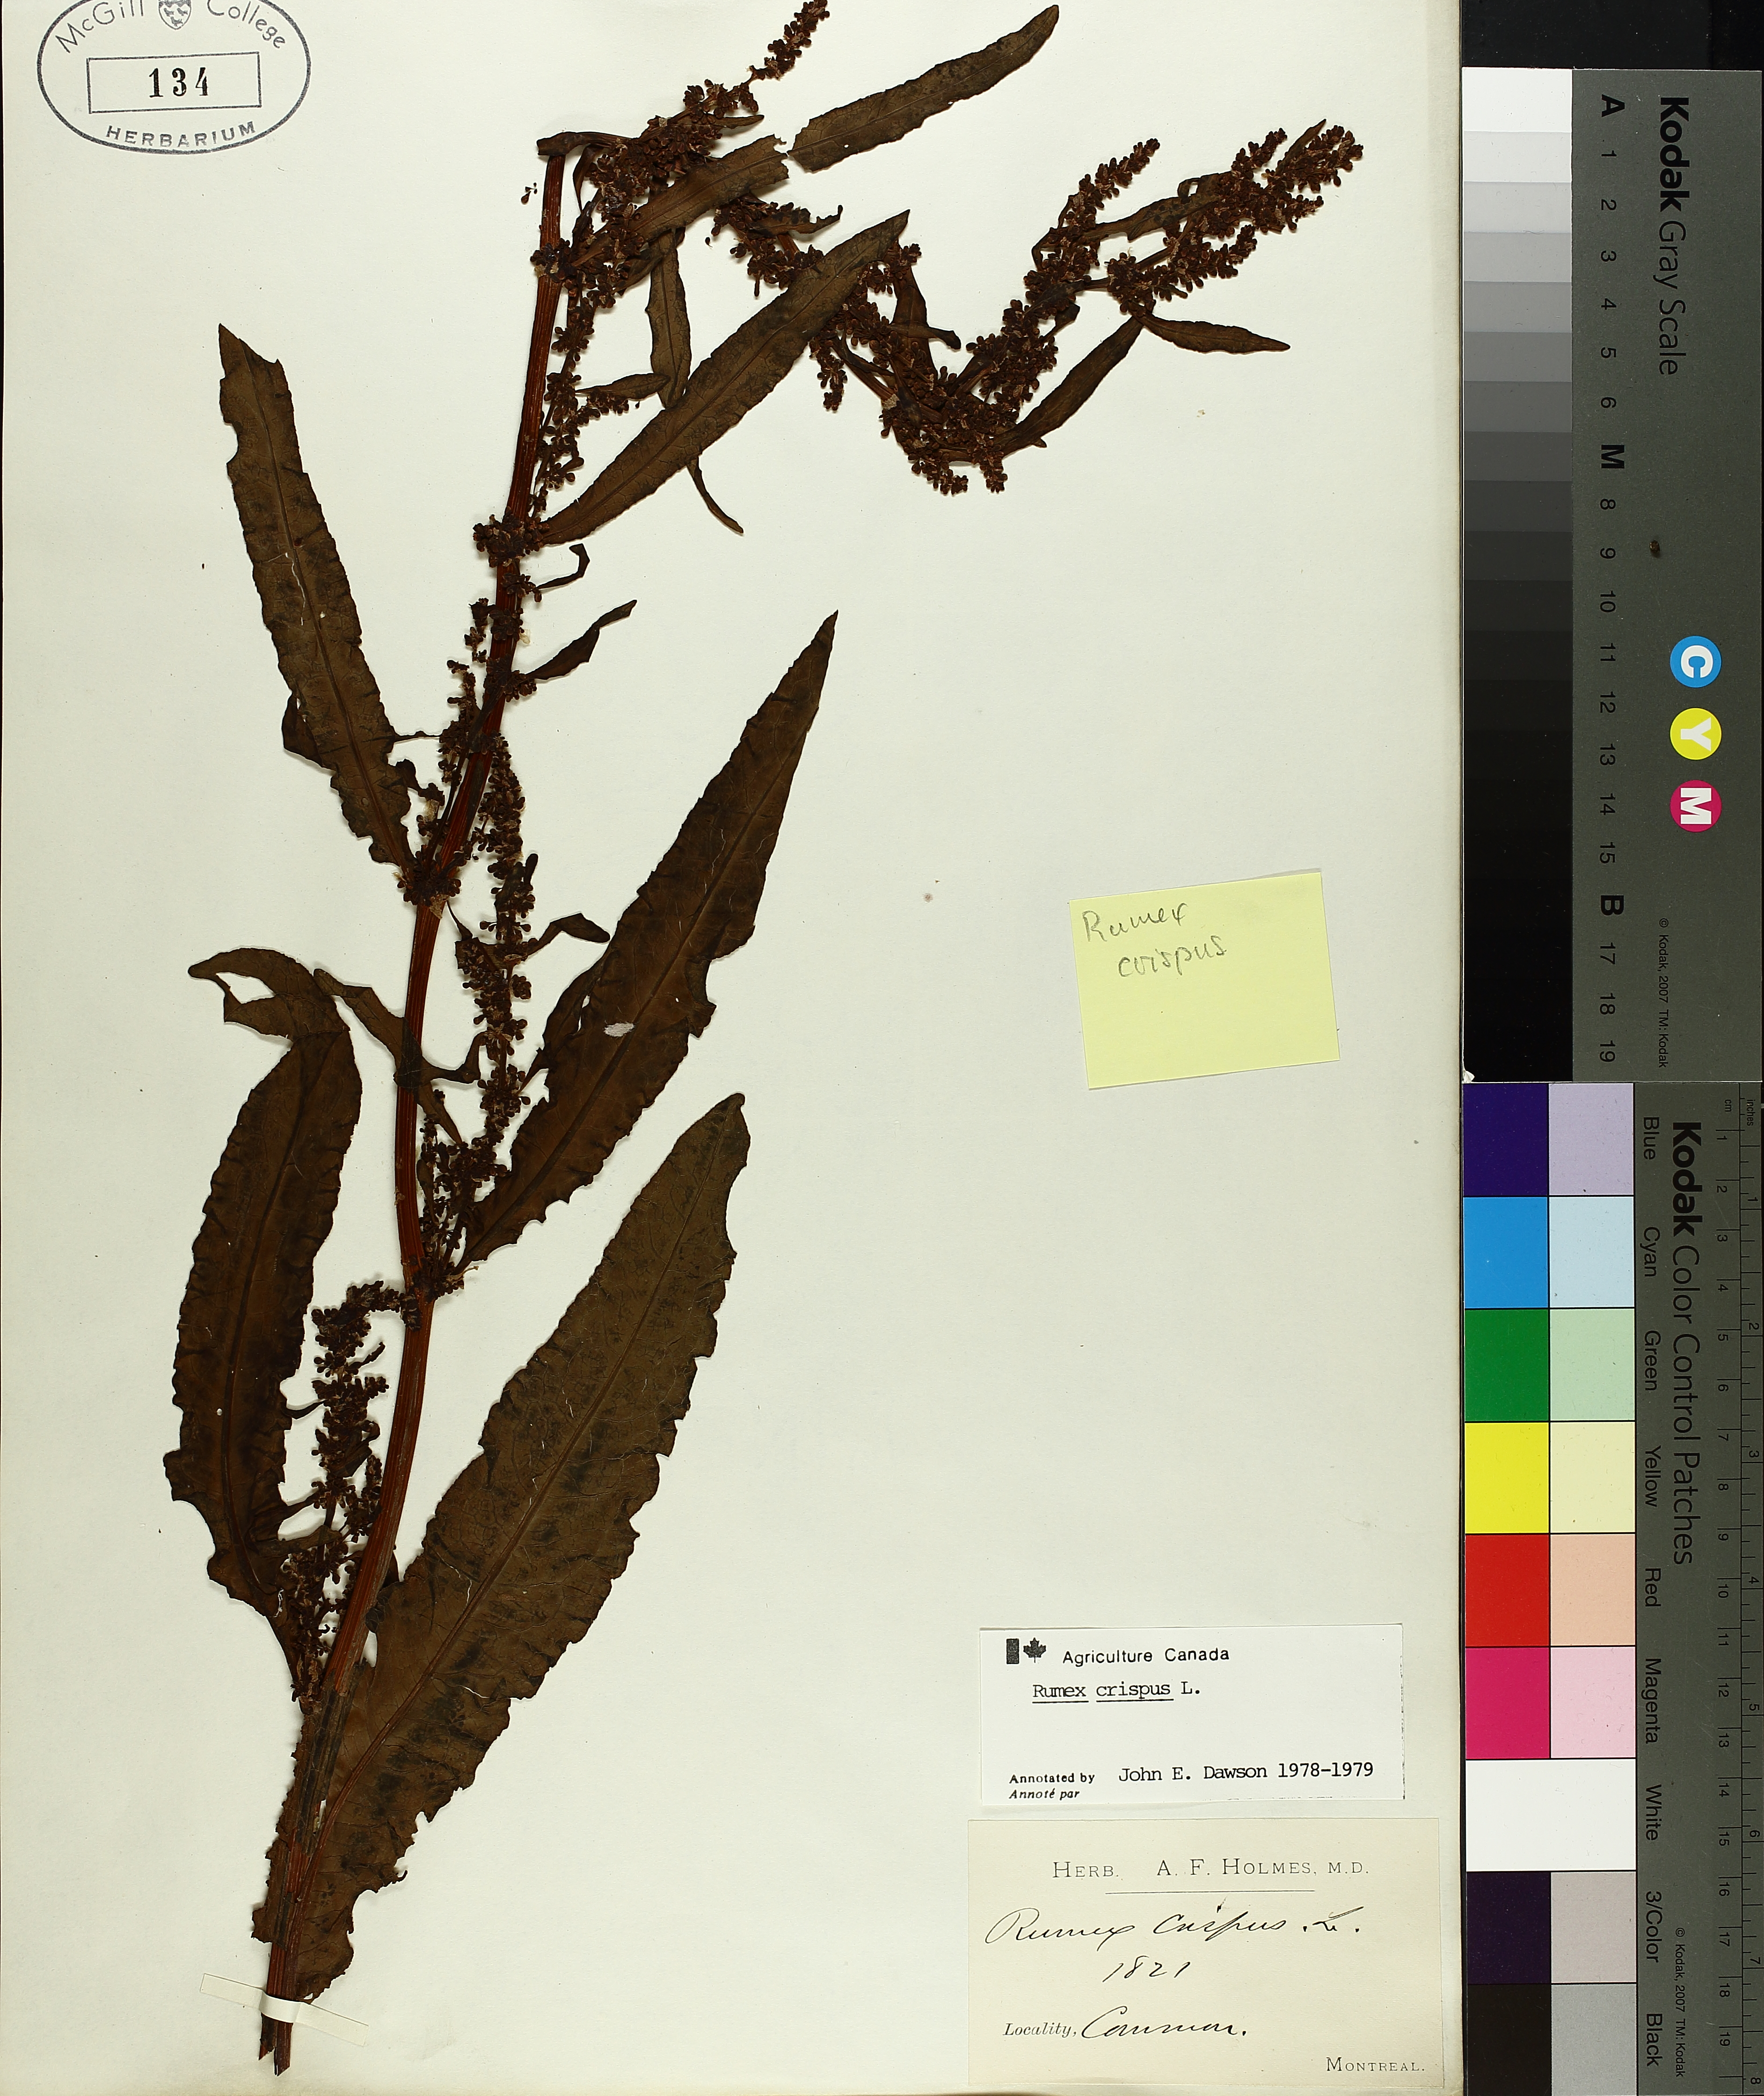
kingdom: Plantae
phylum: Tracheophyta
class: Magnoliopsida
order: Caryophyllales
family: Polygonaceae
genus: Rumex
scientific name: Rumex crispus
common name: Curled dock
